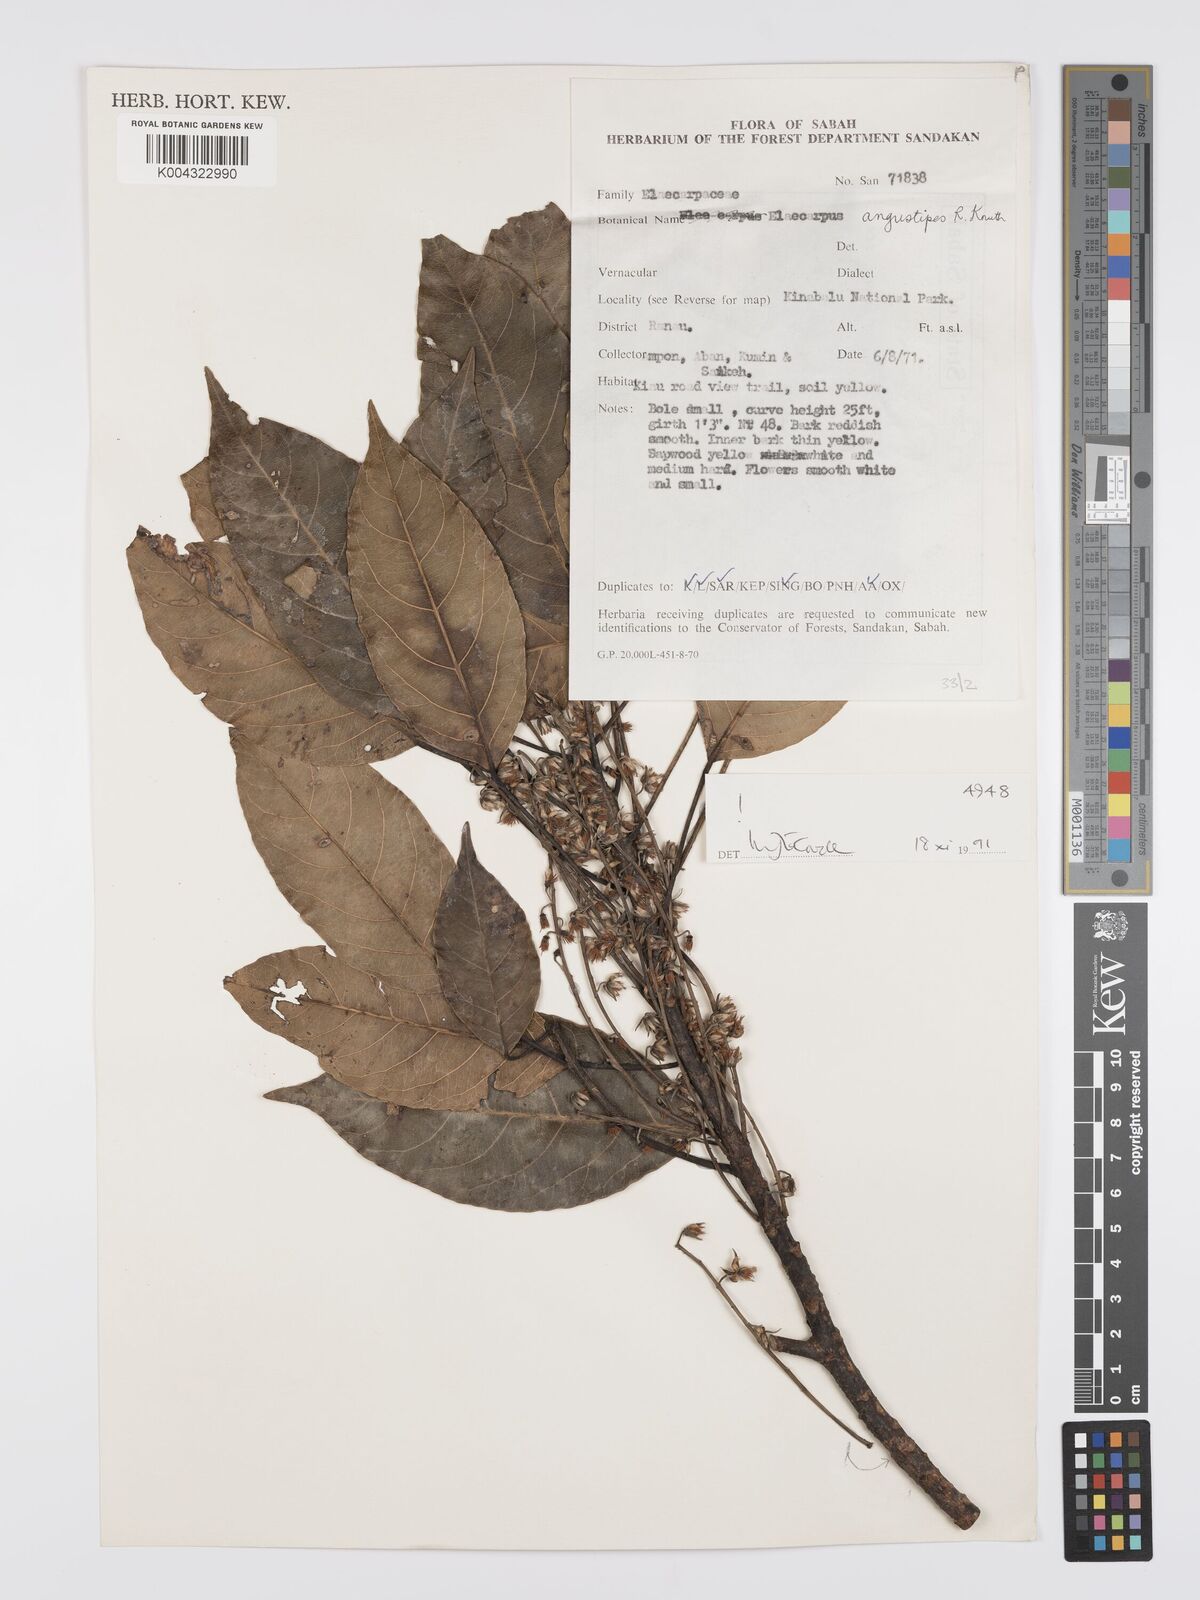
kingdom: Plantae
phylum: Tracheophyta
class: Magnoliopsida
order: Oxalidales
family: Elaeocarpaceae
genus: Elaeocarpus
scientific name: Elaeocarpus angustipes
